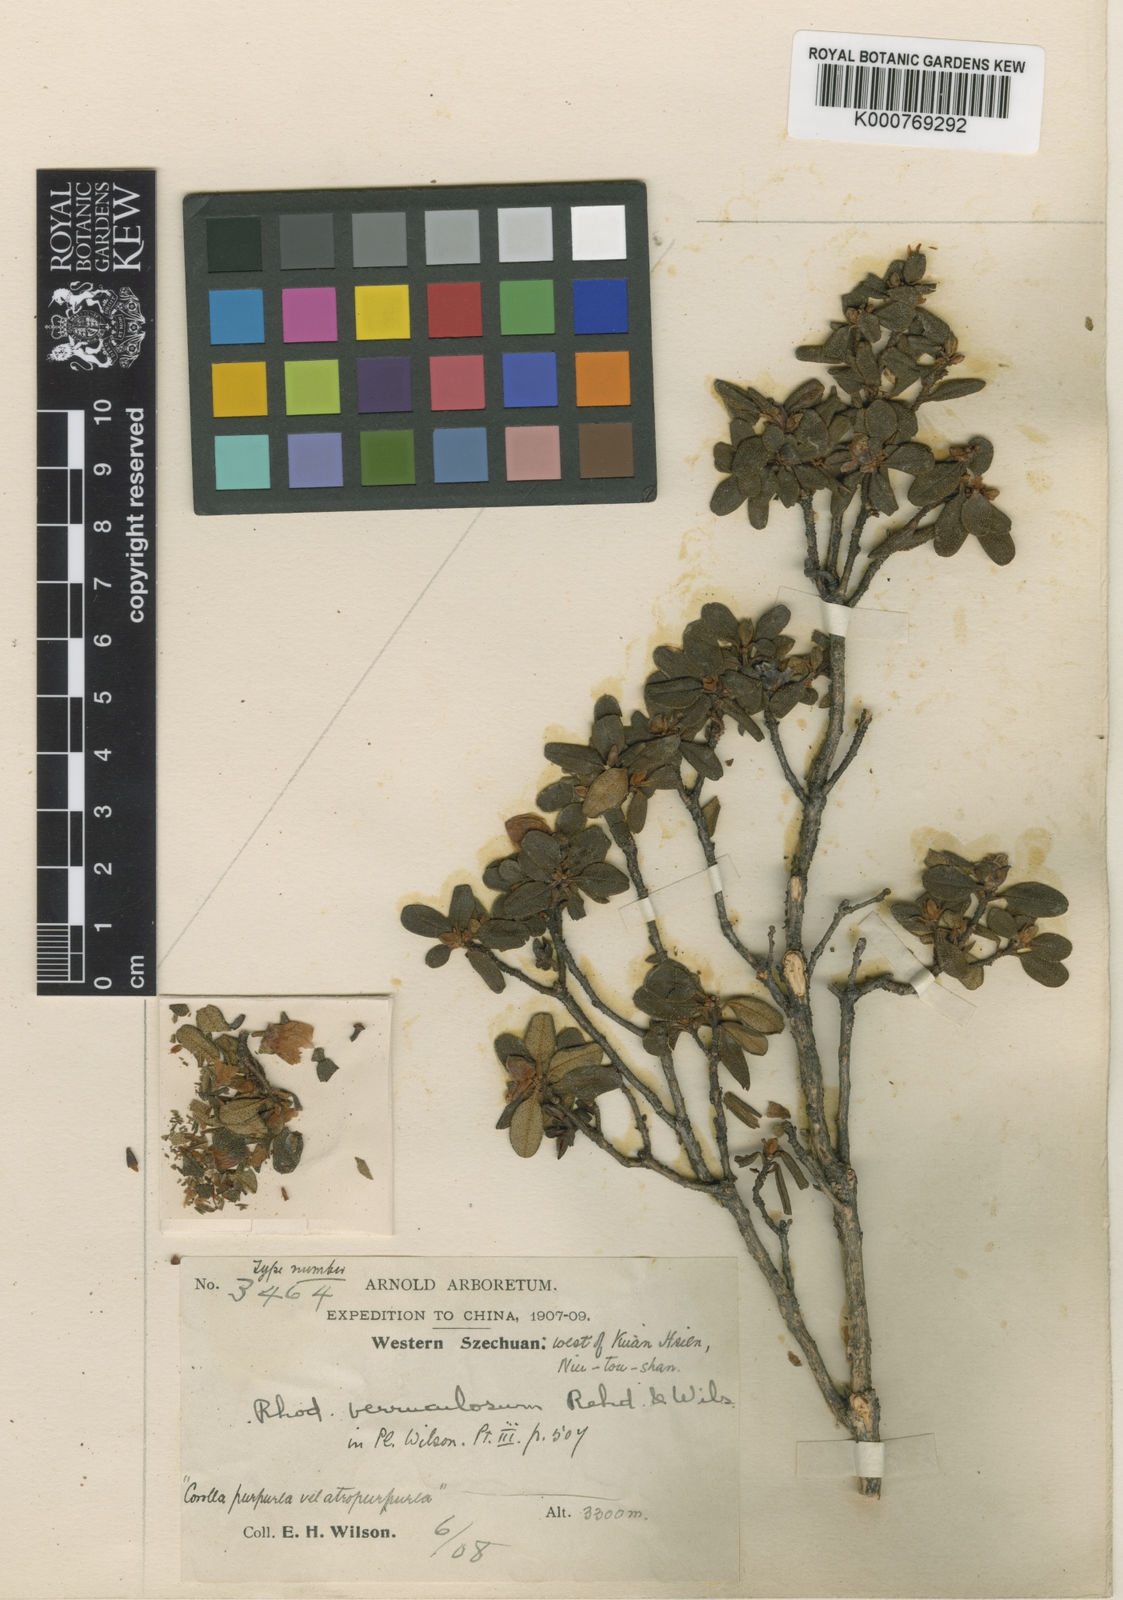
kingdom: Plantae
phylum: Tracheophyta
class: Magnoliopsida
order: Ericales
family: Ericaceae
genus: Rhododendron
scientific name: Rhododendron flavidum
